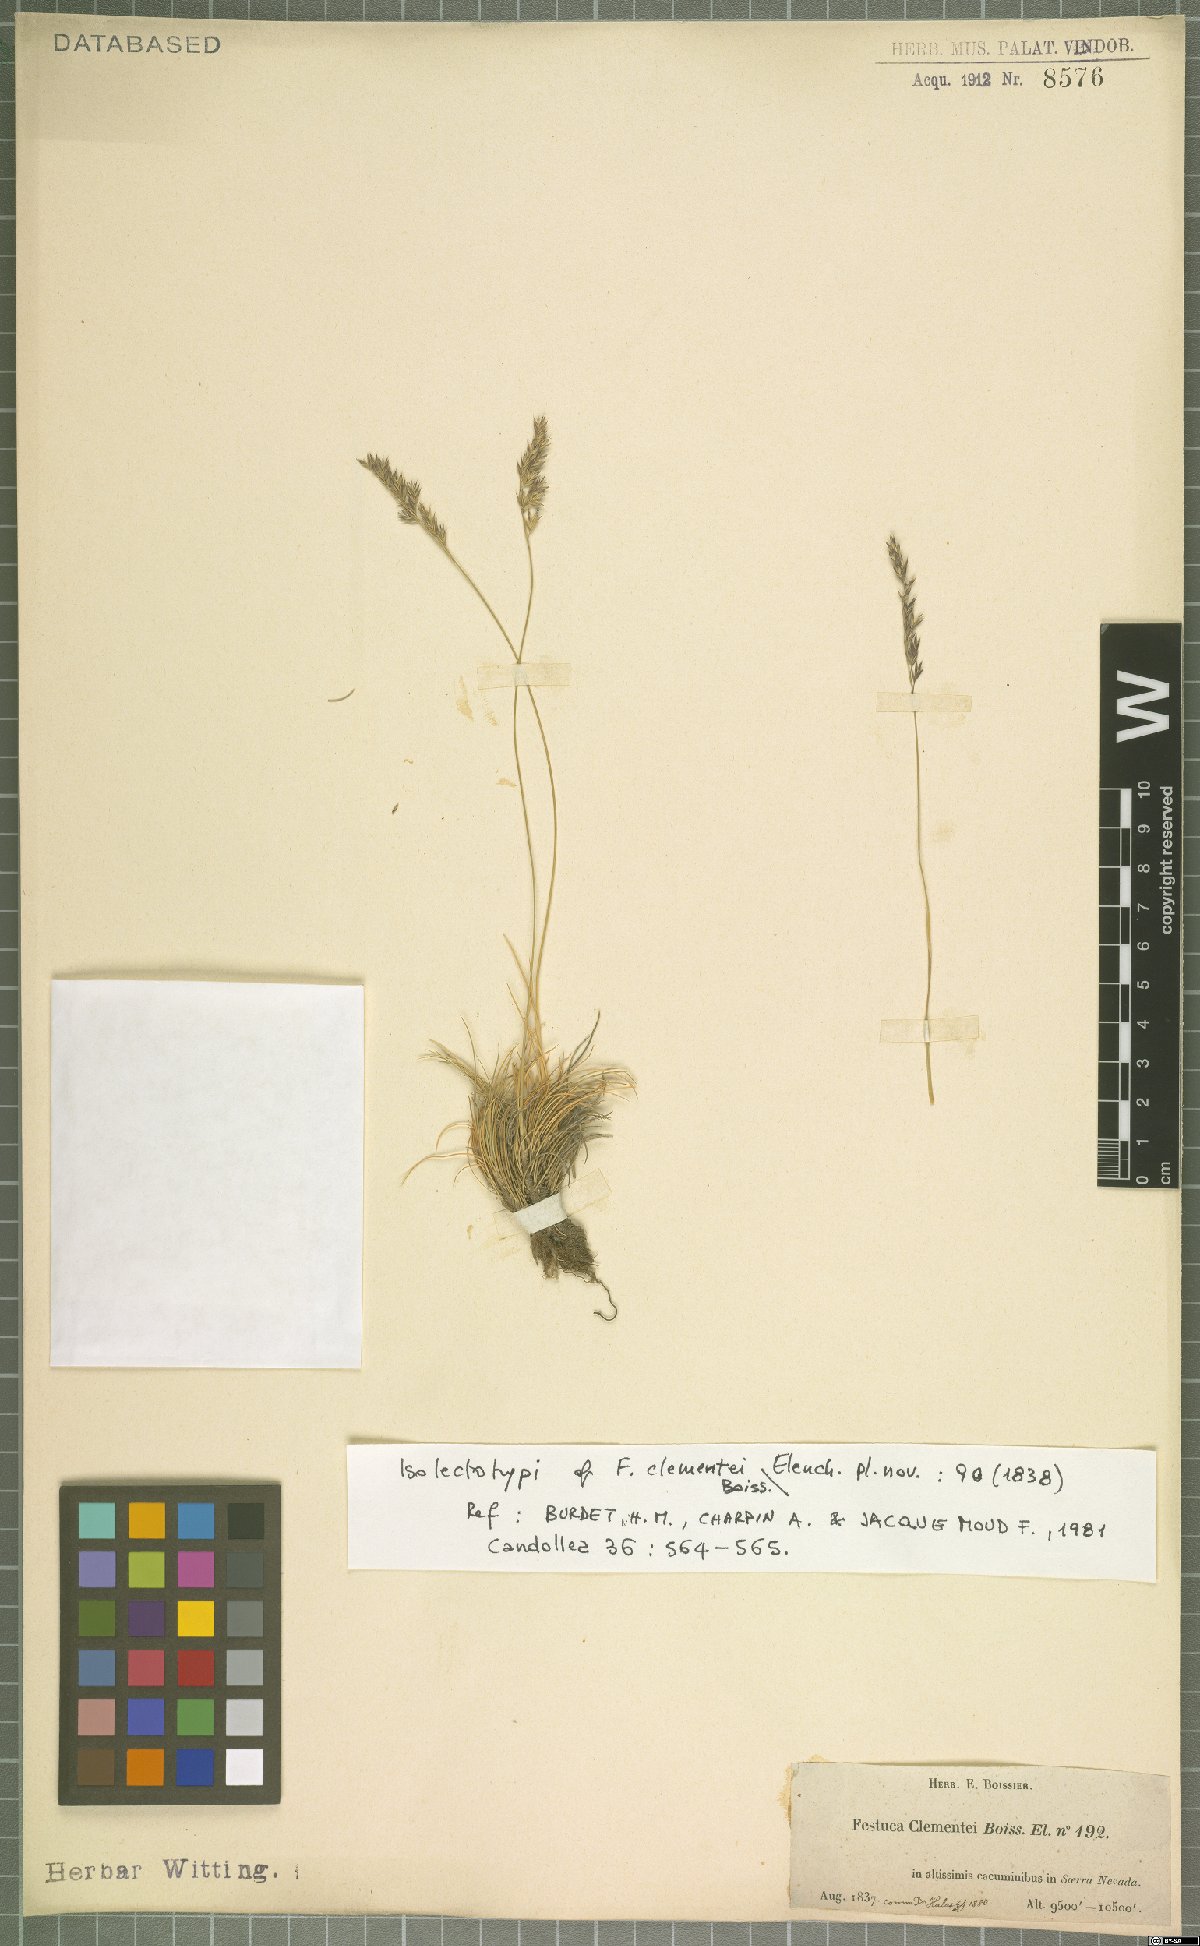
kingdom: Plantae
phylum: Tracheophyta
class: Liliopsida
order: Poales
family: Poaceae
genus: Festuca
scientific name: Festuca clementei
